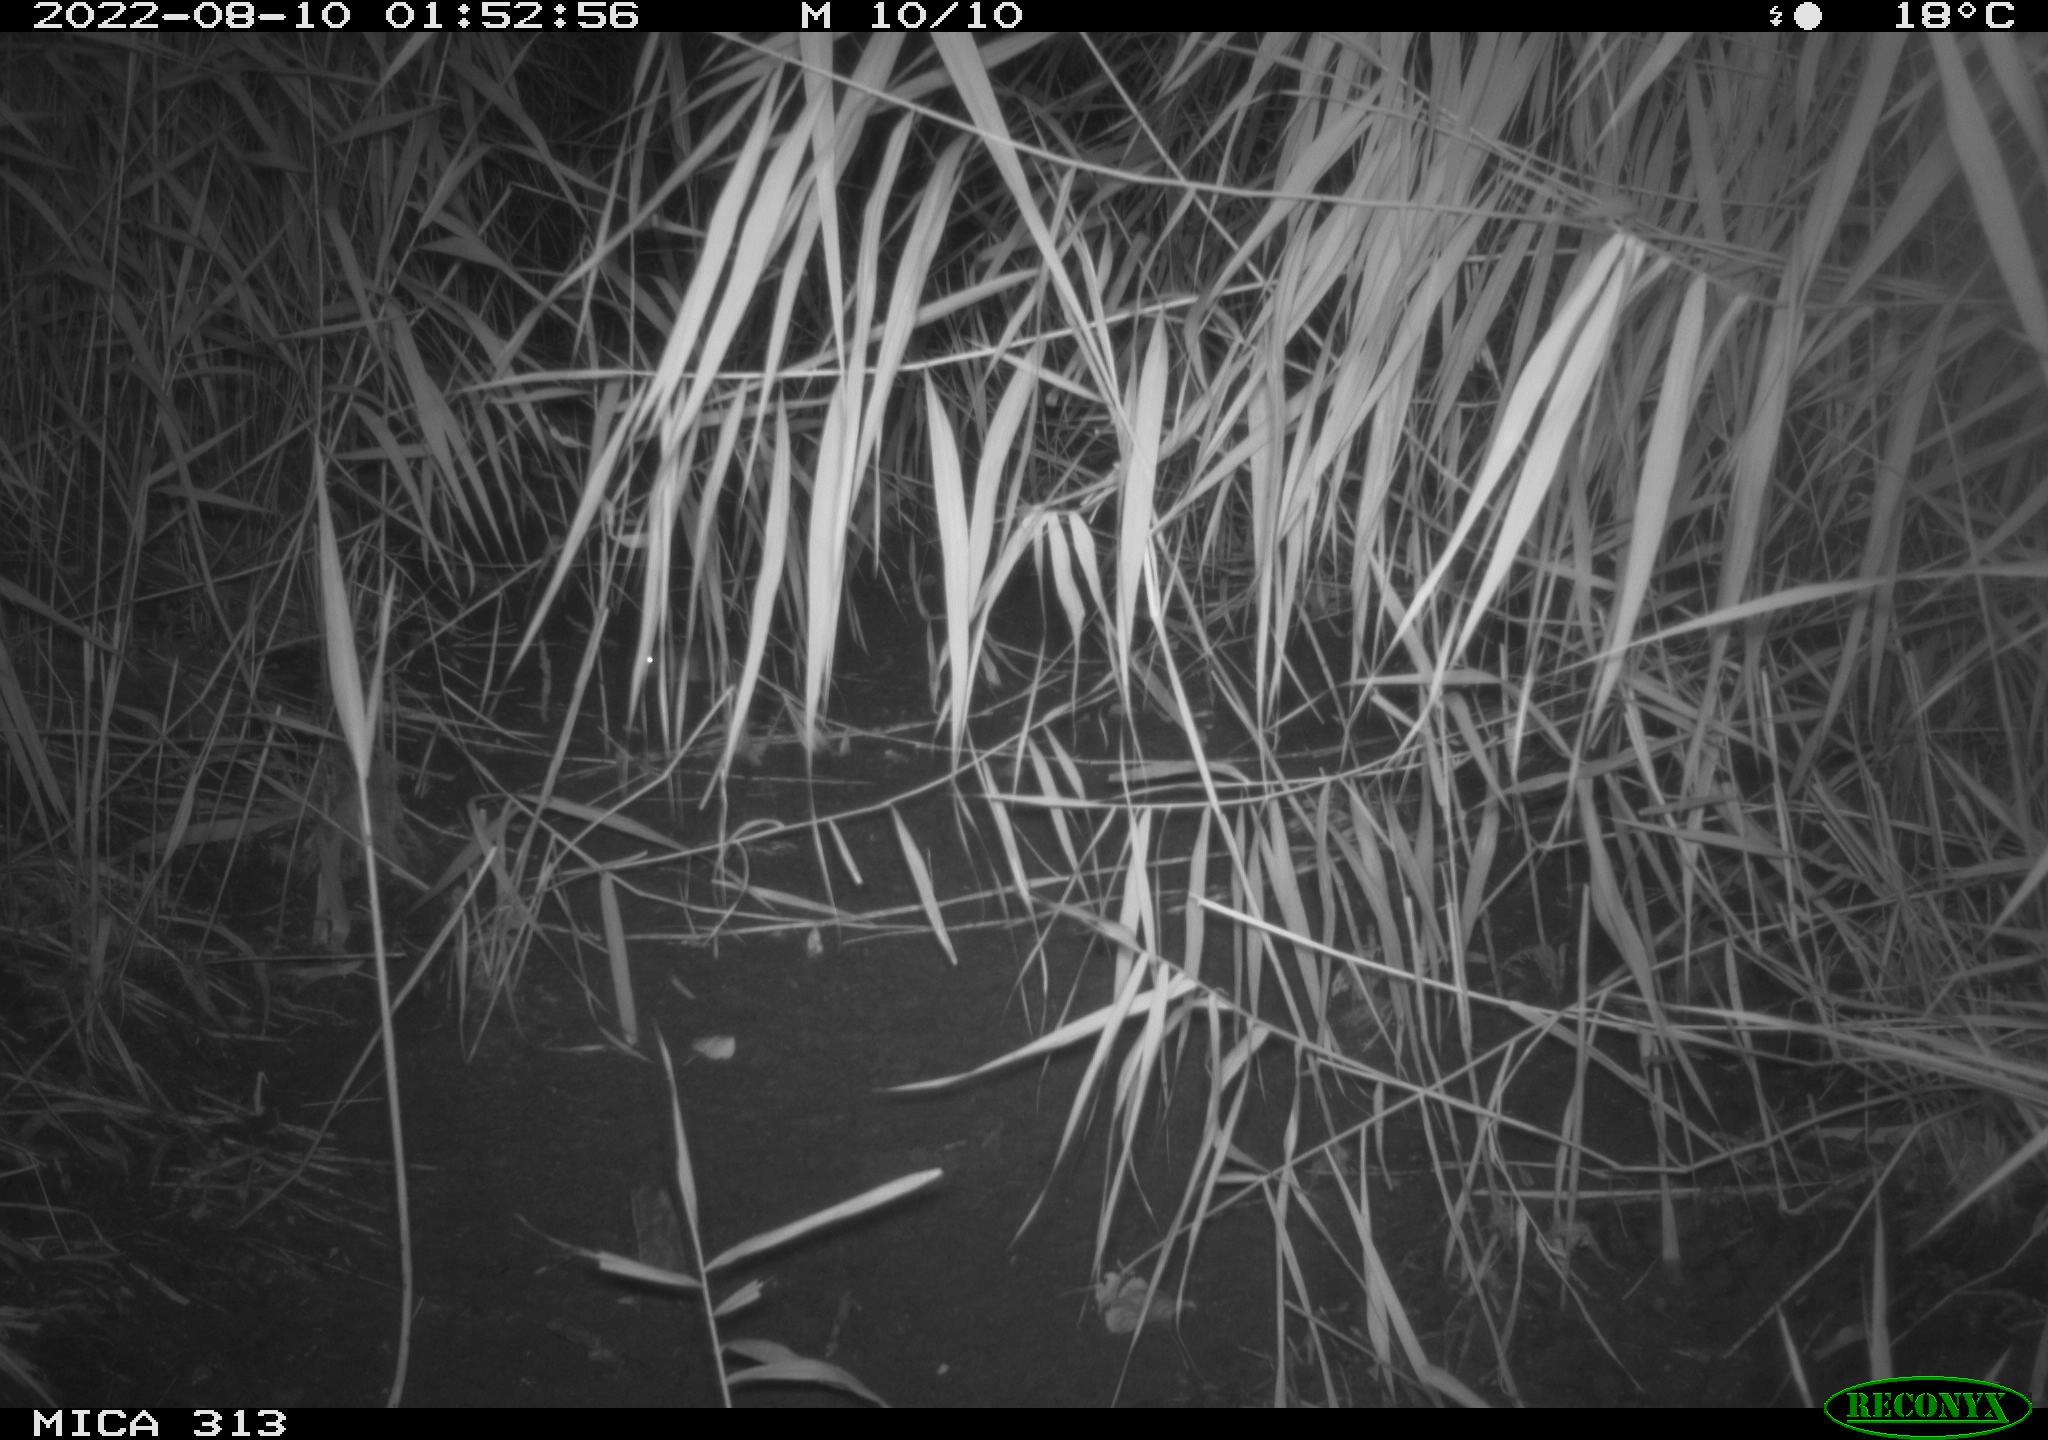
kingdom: Animalia
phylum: Chordata
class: Mammalia
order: Rodentia
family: Muridae
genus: Rattus
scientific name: Rattus norvegicus
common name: Brown rat
